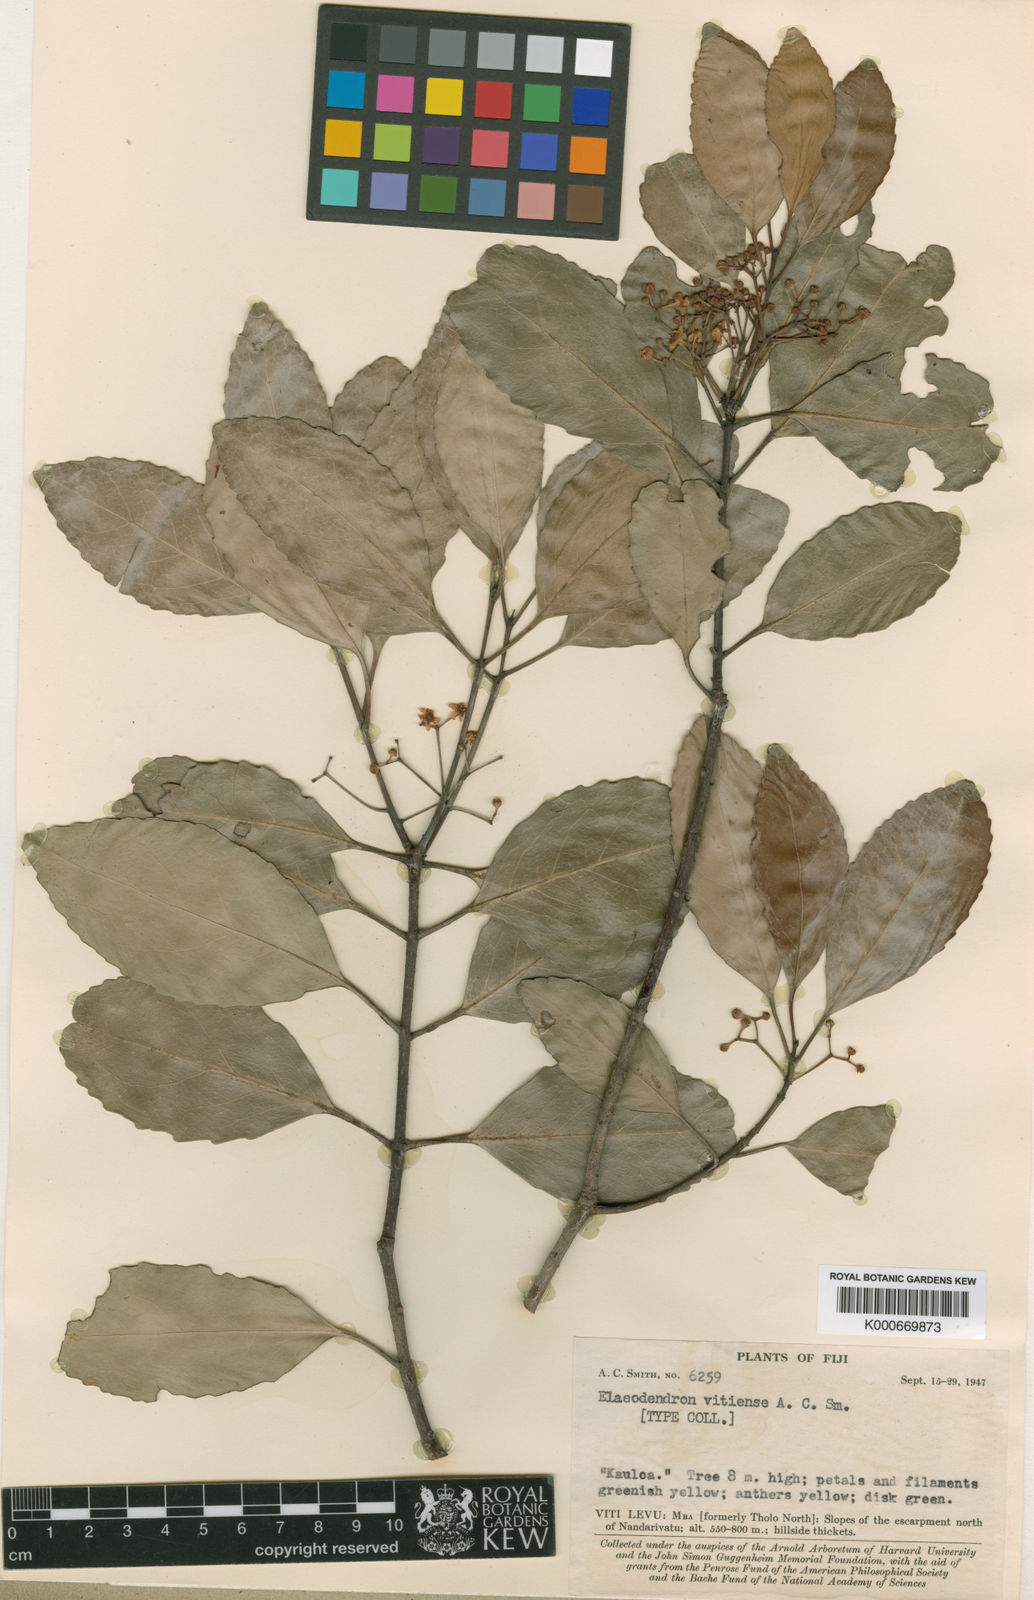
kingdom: Plantae
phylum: Tracheophyta
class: Magnoliopsida
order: Celastrales
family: Celastraceae
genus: Elaeodendron
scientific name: Elaeodendron vitiense
